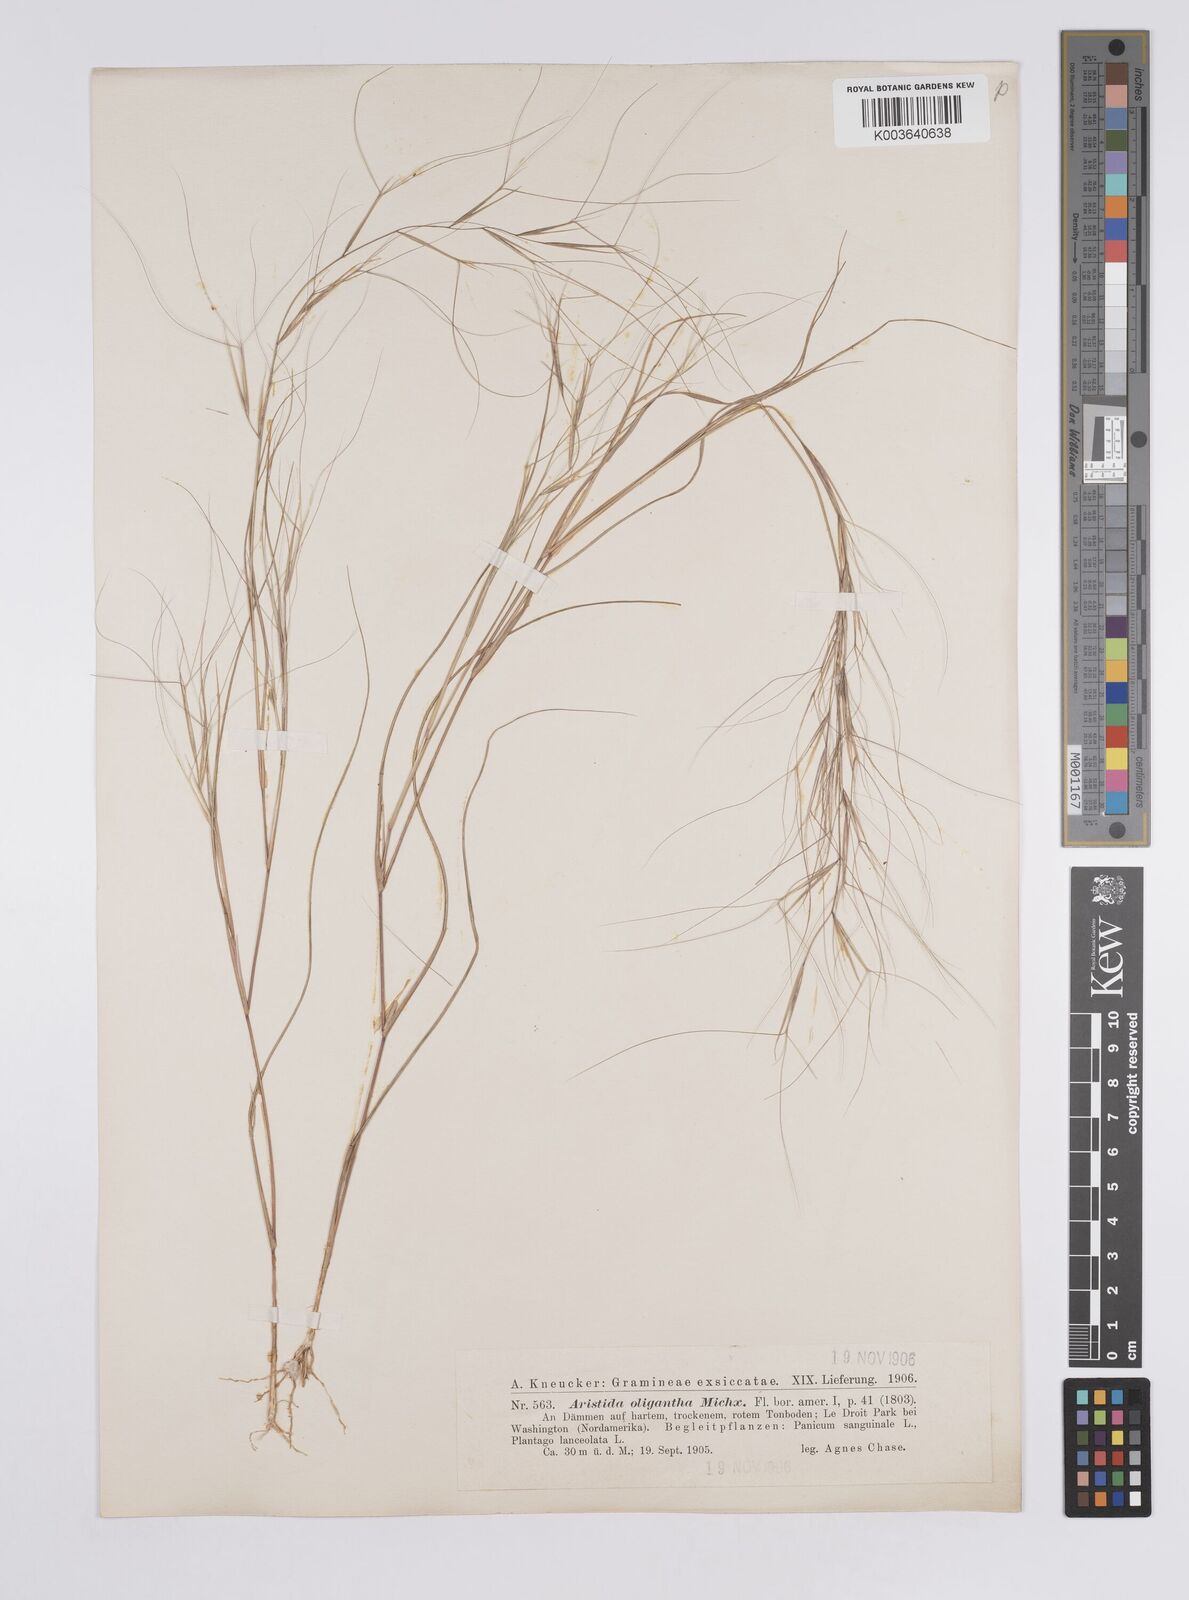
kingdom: Plantae
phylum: Tracheophyta
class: Liliopsida
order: Poales
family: Poaceae
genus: Aristida
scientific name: Aristida oligantha
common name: Few-flowered aristida
